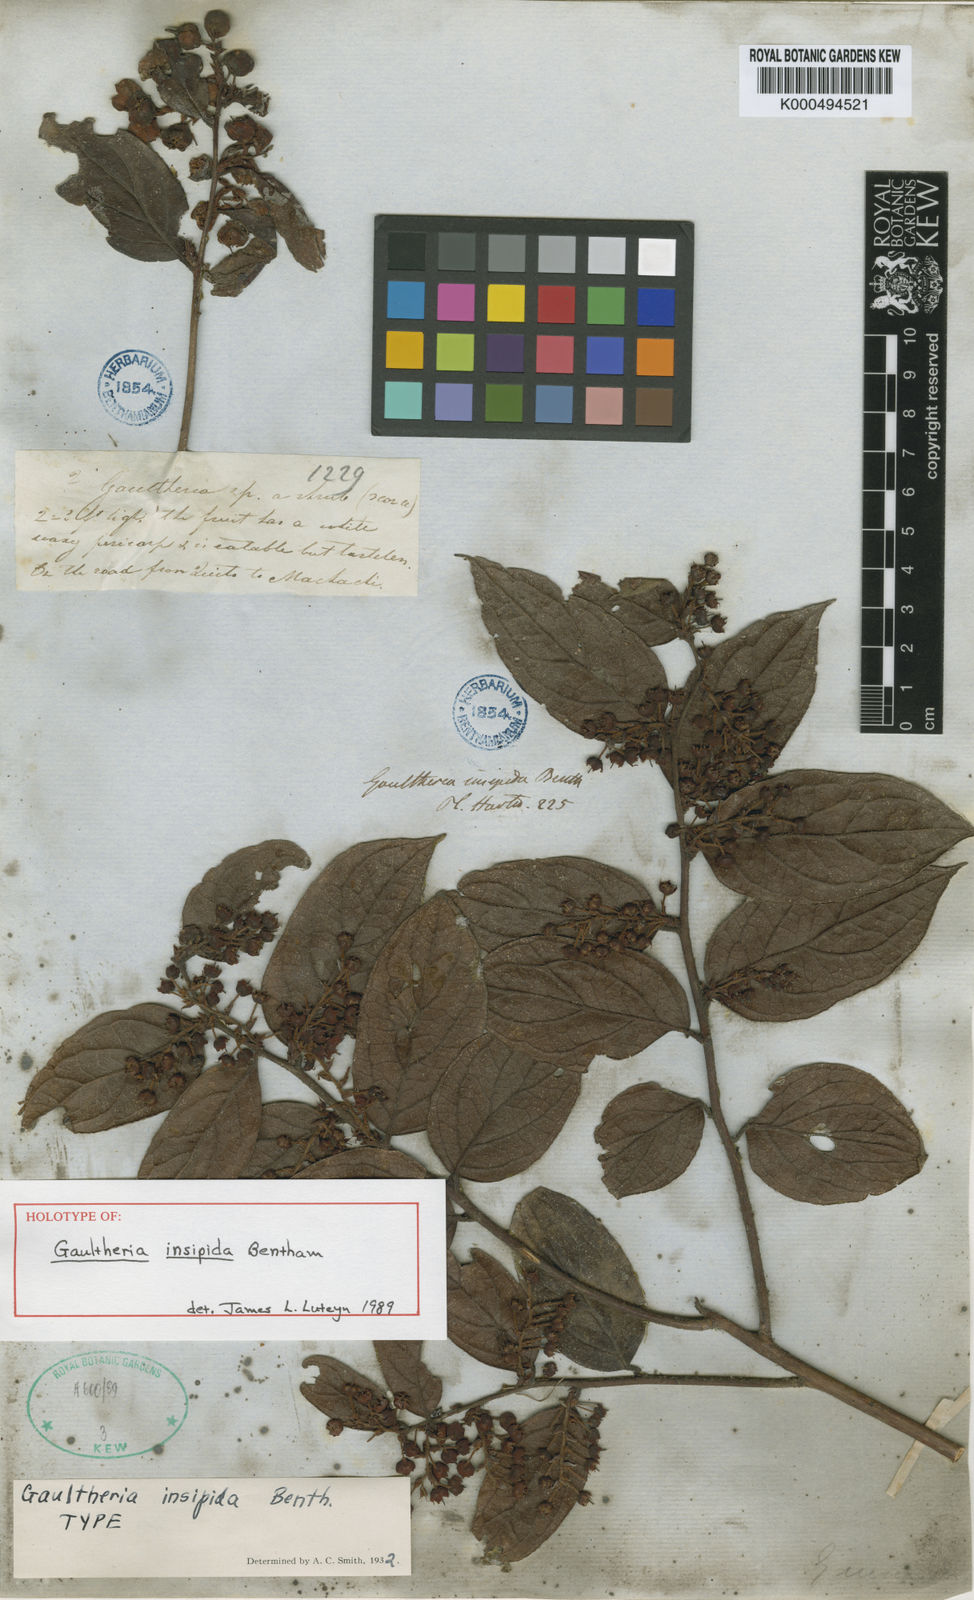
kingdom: Plantae
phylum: Tracheophyta
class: Magnoliopsida
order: Ericales
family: Ericaceae
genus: Gaultheria
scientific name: Gaultheria insipida
